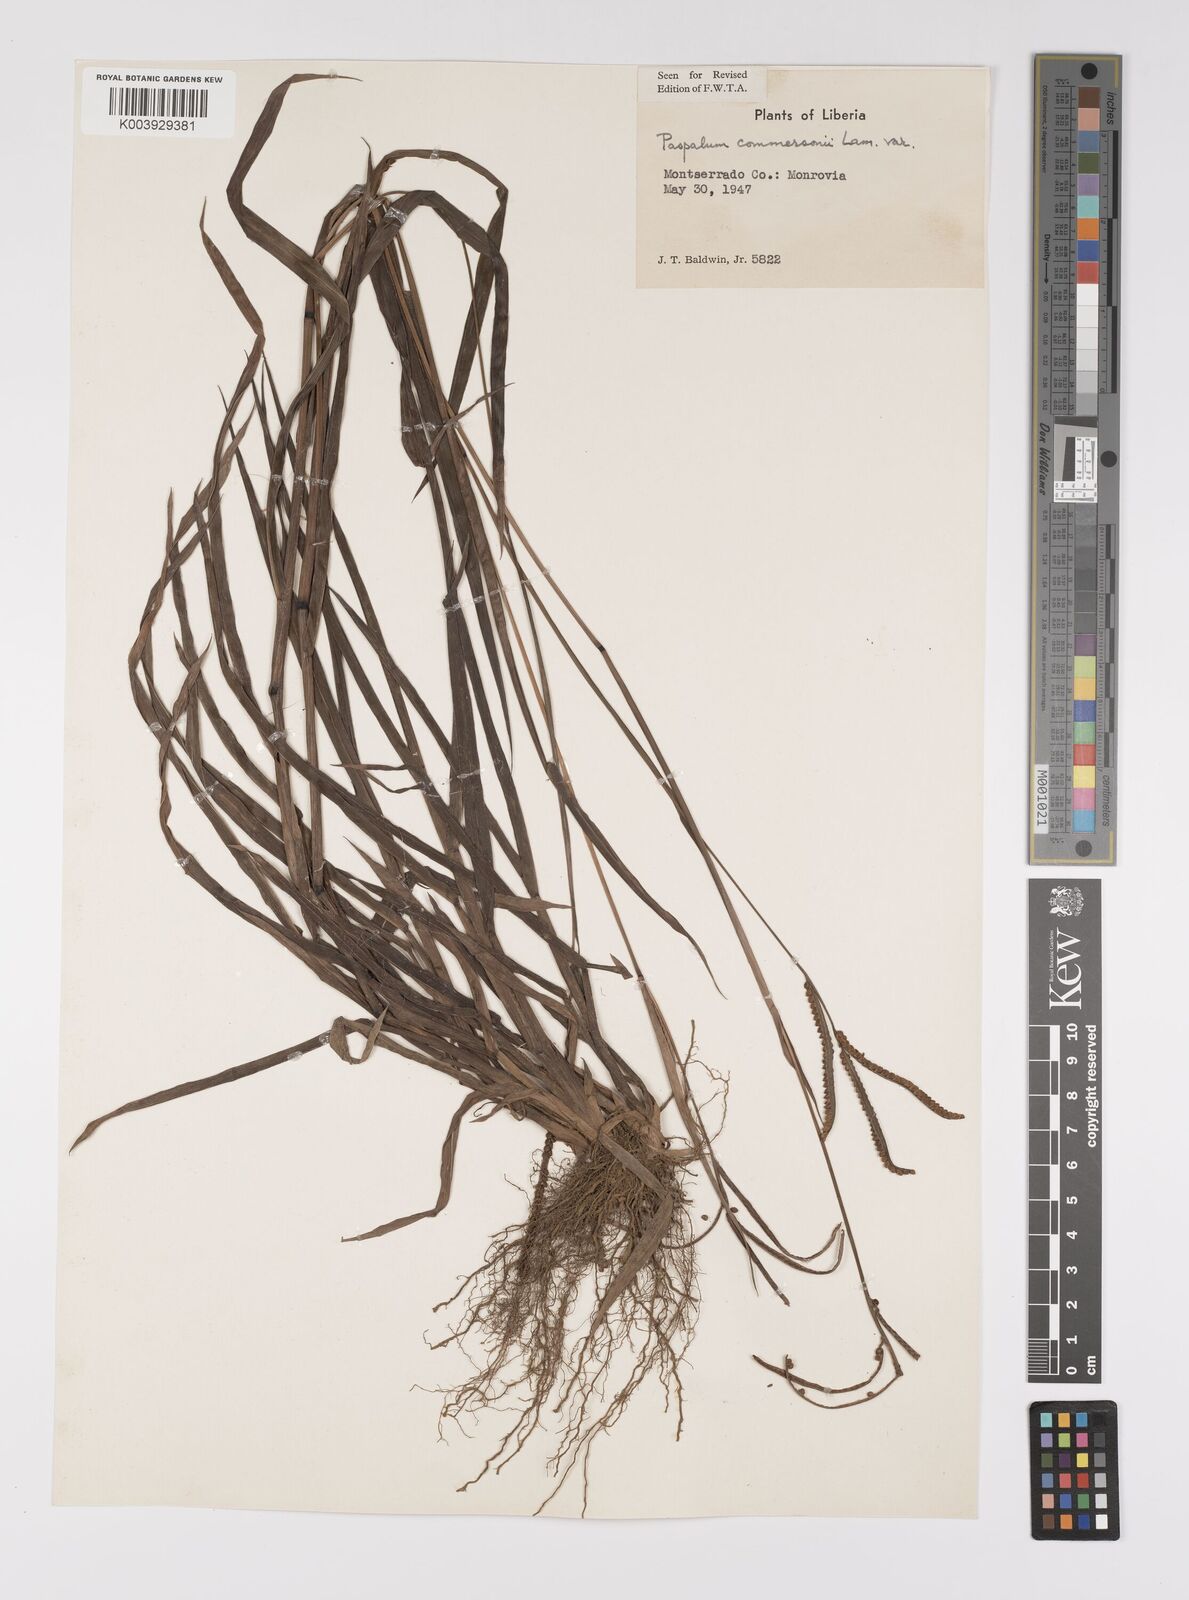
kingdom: Plantae
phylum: Tracheophyta
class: Liliopsida
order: Poales
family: Poaceae
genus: Paspalum
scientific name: Paspalum scrobiculatum
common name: Kodo millet
